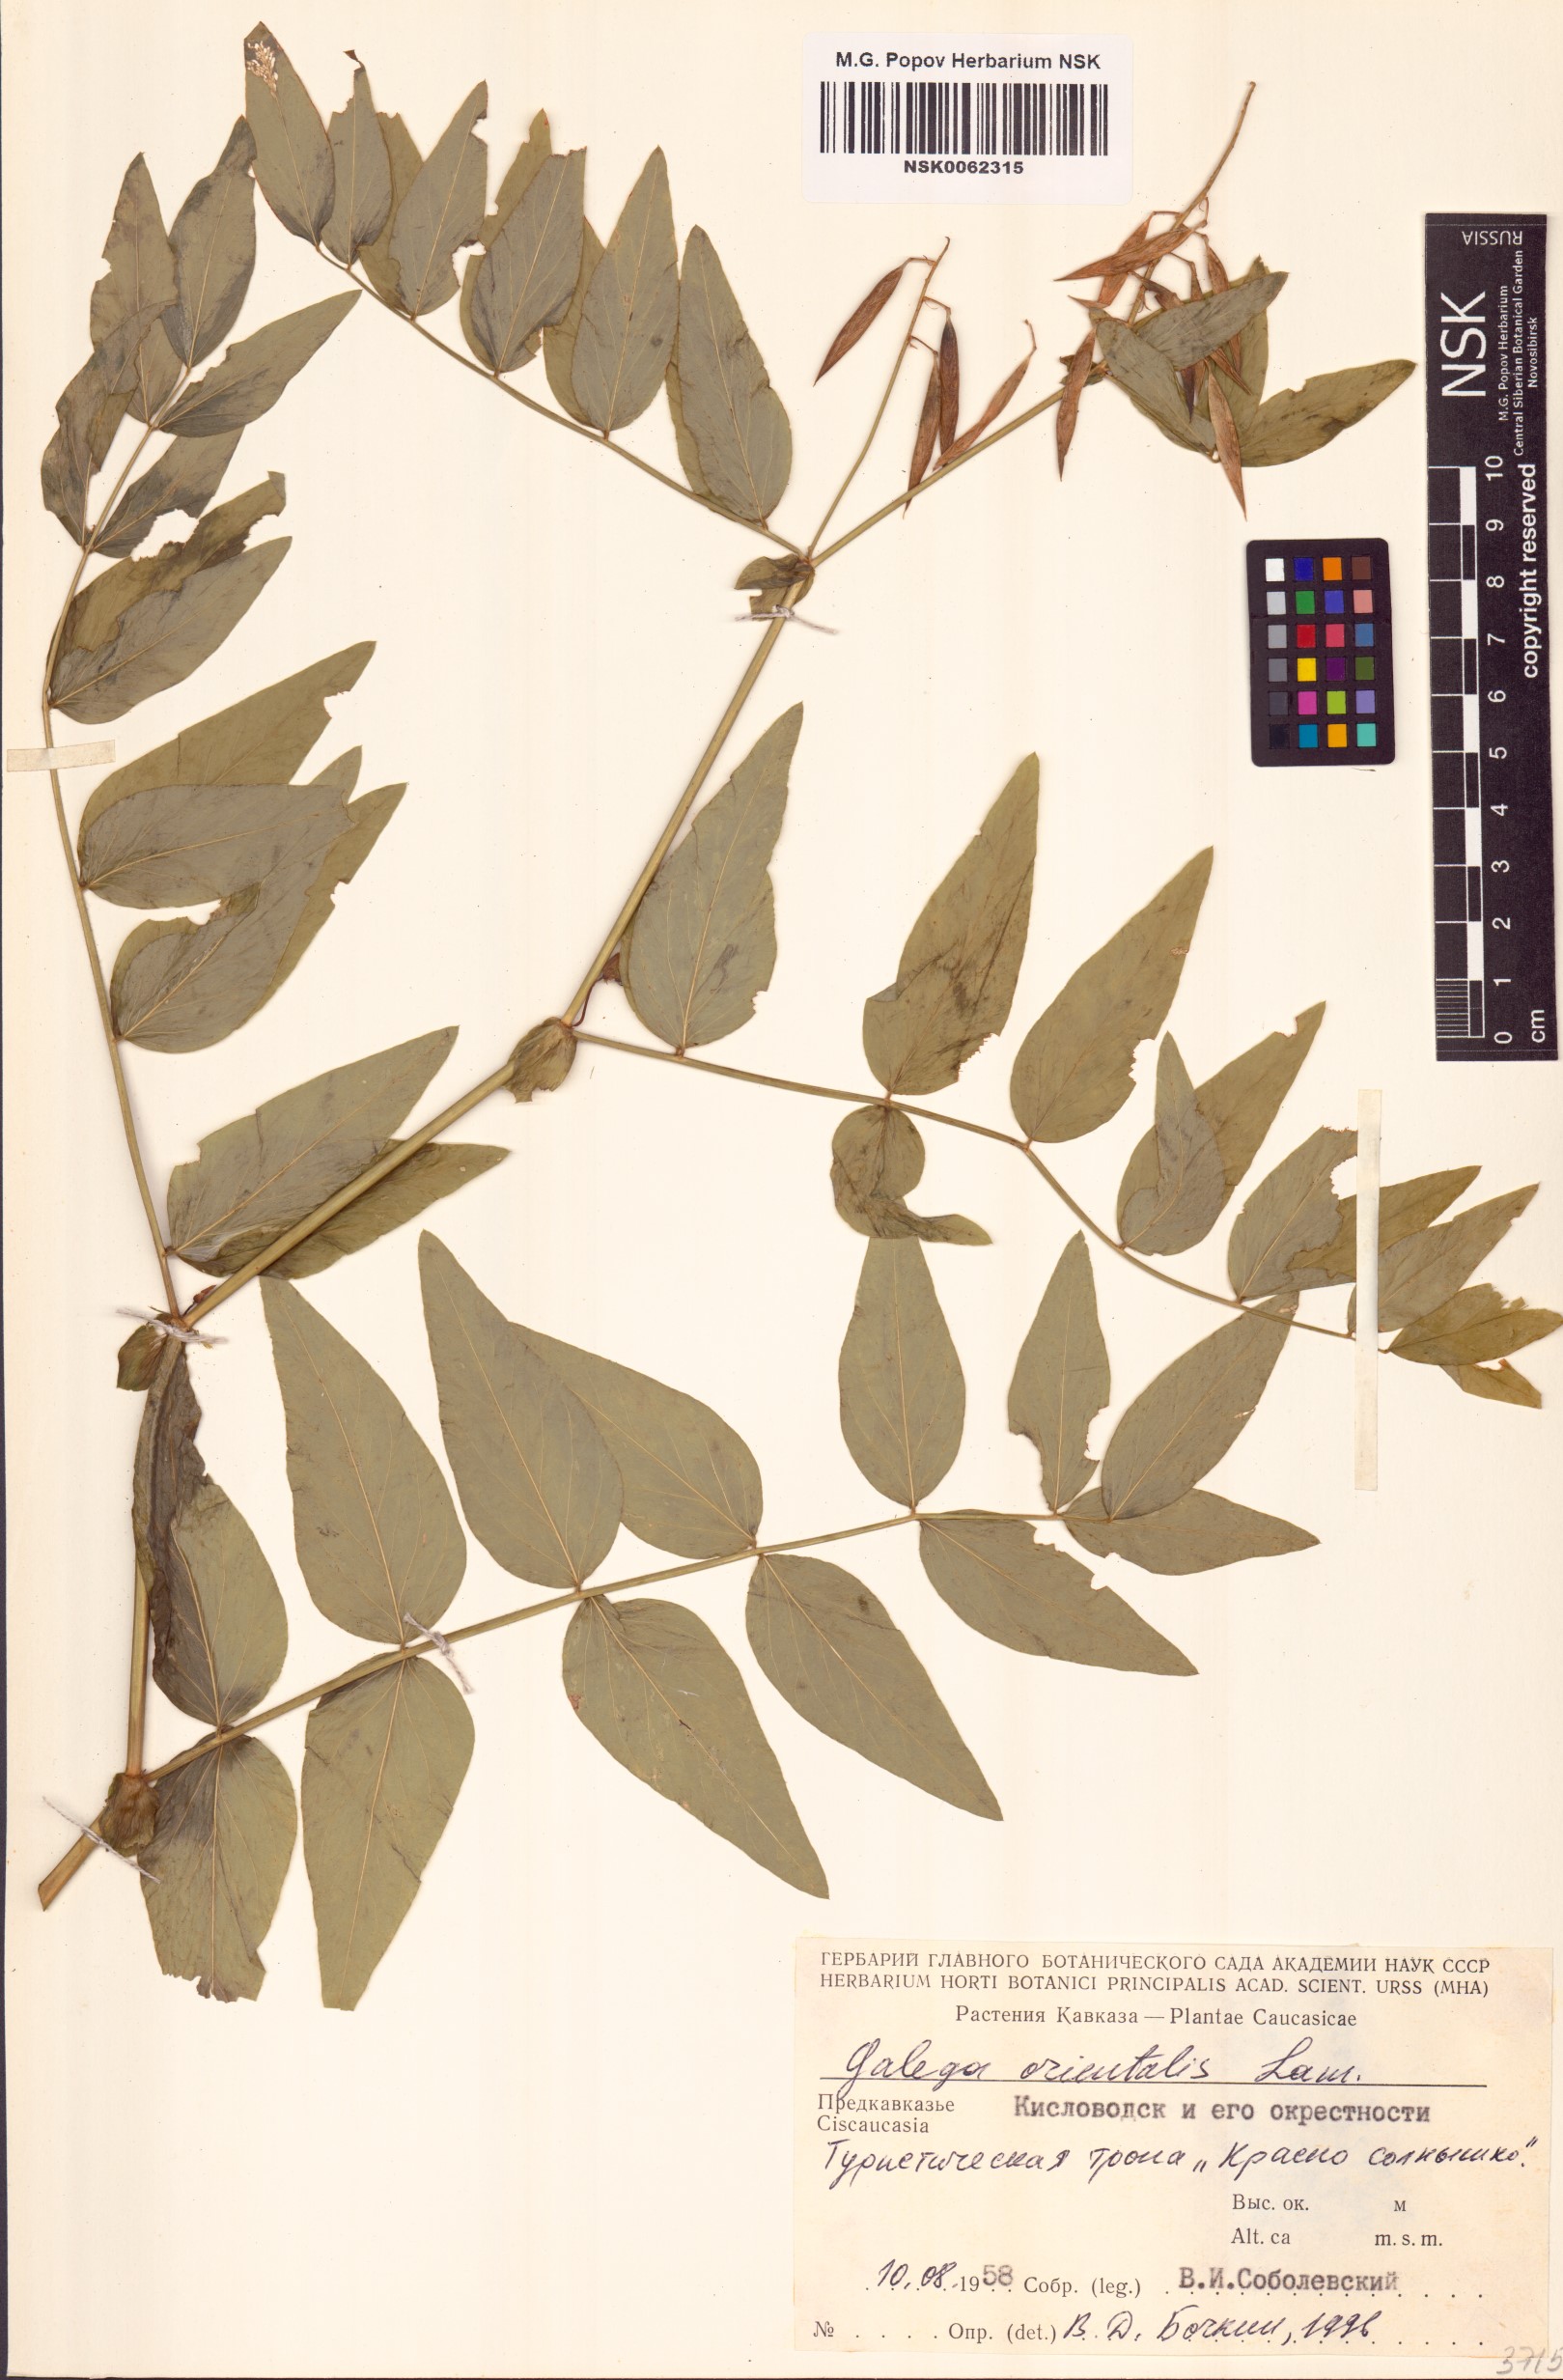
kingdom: Plantae
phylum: Tracheophyta
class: Magnoliopsida
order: Fabales
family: Fabaceae
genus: Galega
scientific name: Galega orientalis
